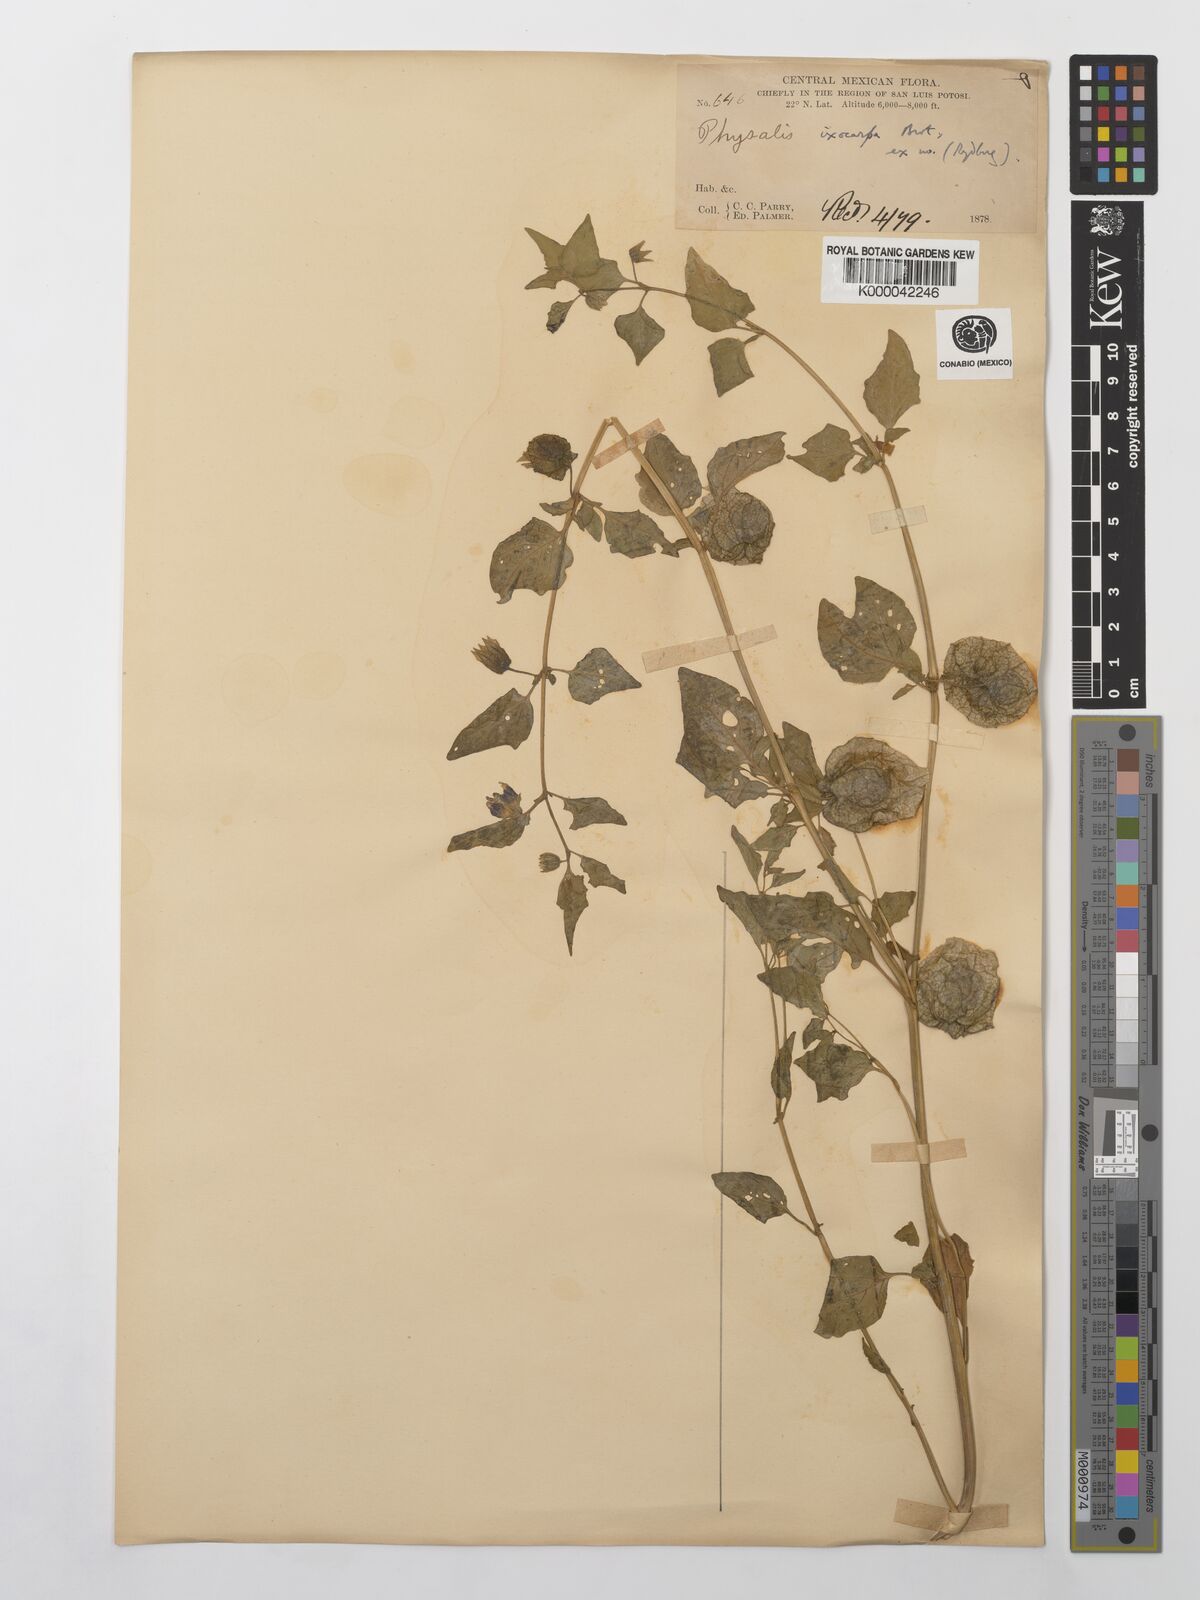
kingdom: Plantae
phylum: Tracheophyta
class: Magnoliopsida
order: Solanales
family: Solanaceae
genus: Physalis
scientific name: Physalis philadelphica
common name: Husk-tomato
